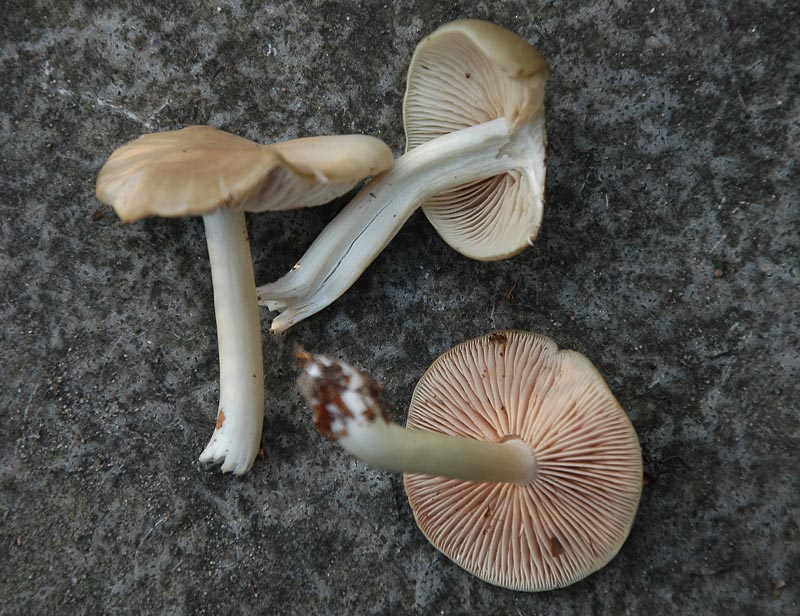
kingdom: Fungi
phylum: Basidiomycota
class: Agaricomycetes
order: Agaricales
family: Entolomataceae
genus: Entoloma
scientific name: Entoloma rhodopolium
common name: skov-rødblad
